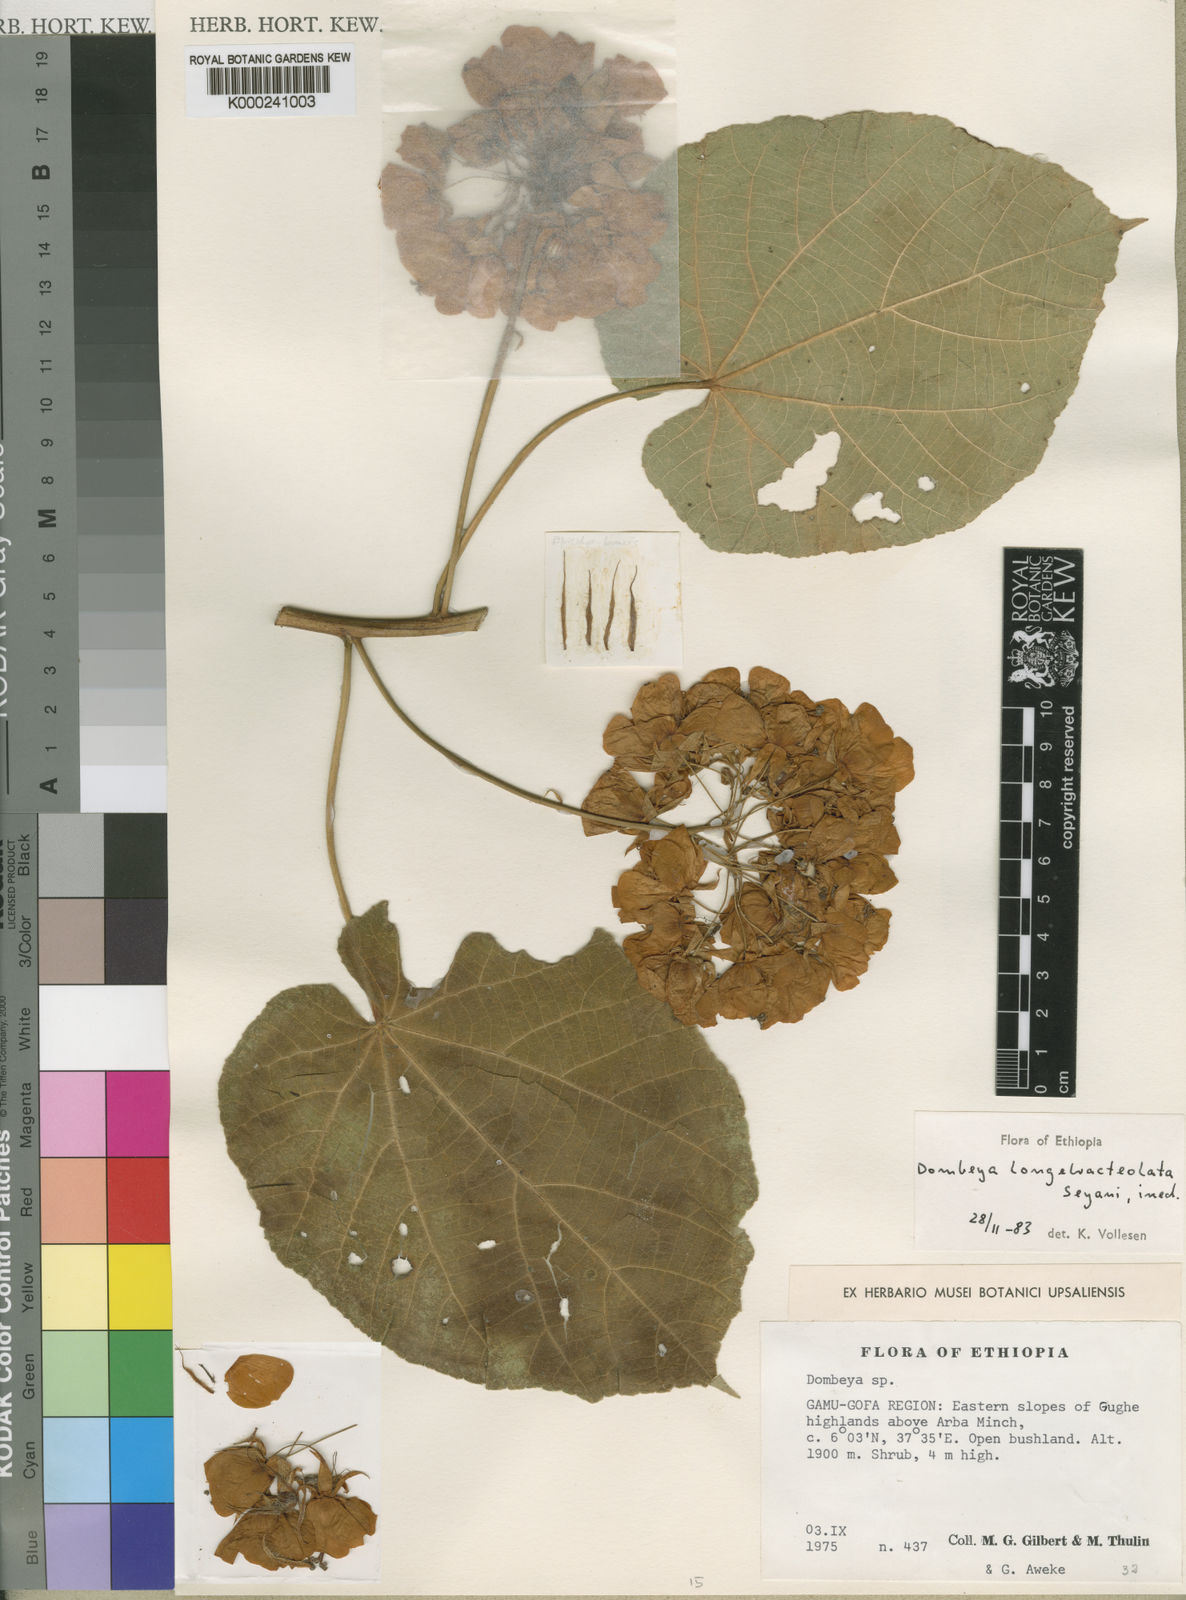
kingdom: Plantae
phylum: Tracheophyta
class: Magnoliopsida
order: Malvales
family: Malvaceae
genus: Dombeya
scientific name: Dombeya longebracteolata
